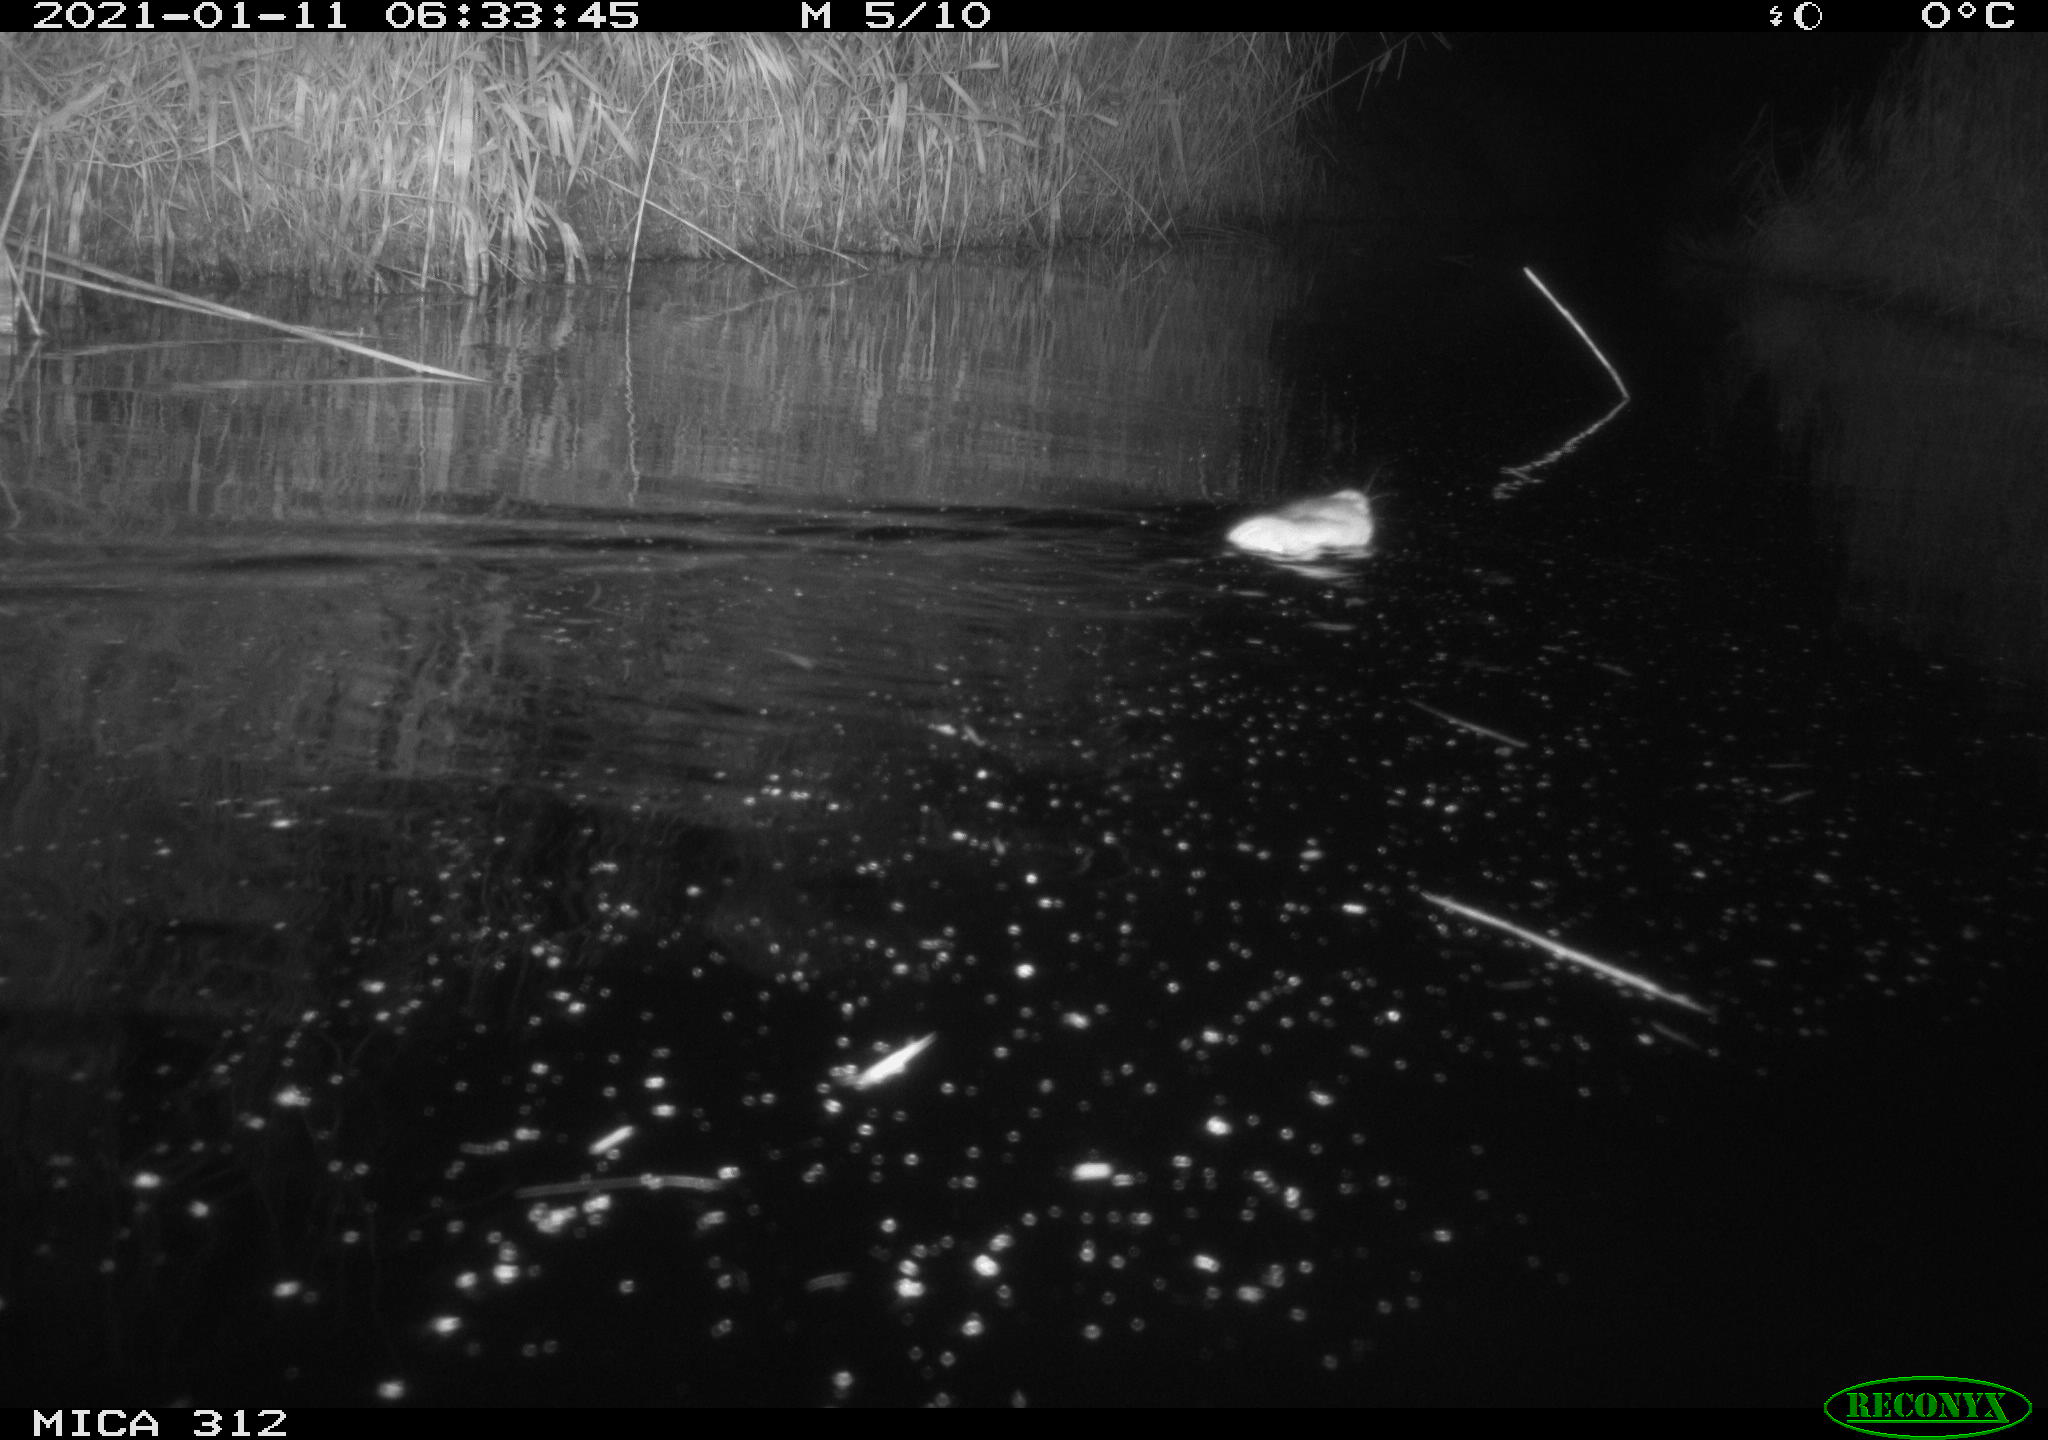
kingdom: Animalia
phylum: Chordata
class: Mammalia
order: Rodentia
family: Muridae
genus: Rattus
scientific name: Rattus norvegicus
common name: Brown rat
